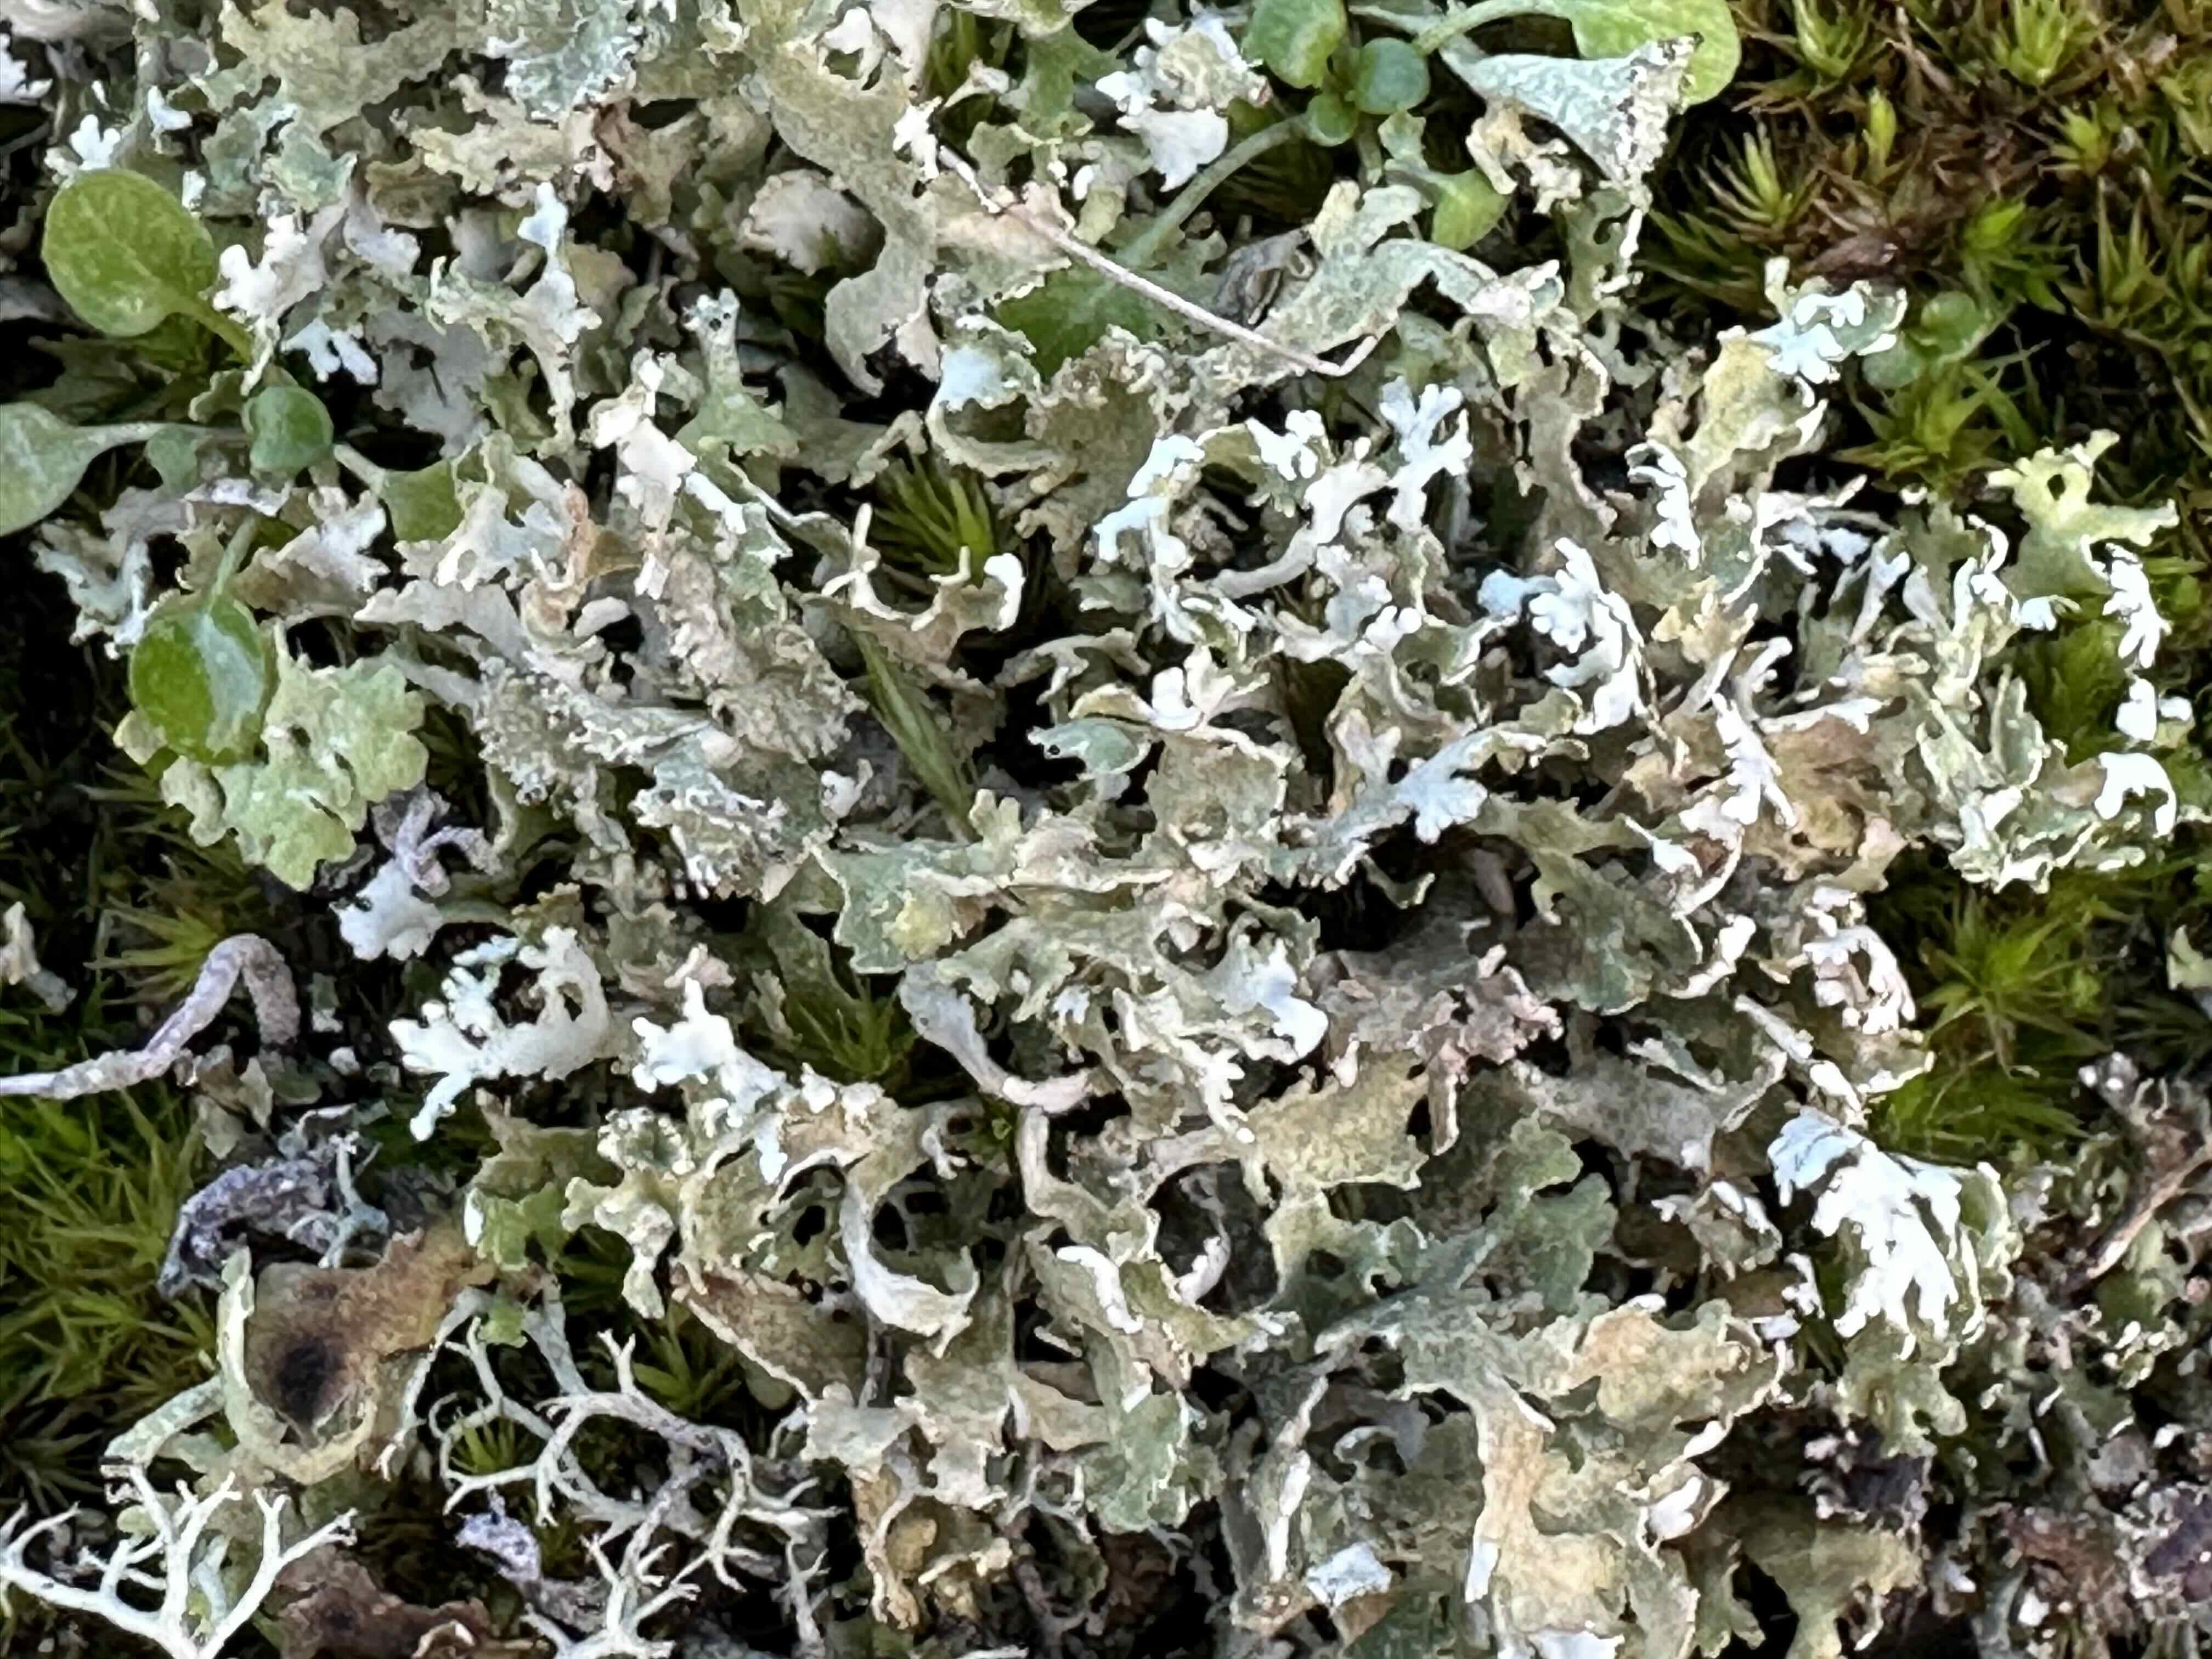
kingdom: Fungi
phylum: Ascomycota
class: Lecanoromycetes
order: Lecanorales
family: Cladoniaceae
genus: Cladonia
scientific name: Cladonia foliacea
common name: fliget bægerlav
